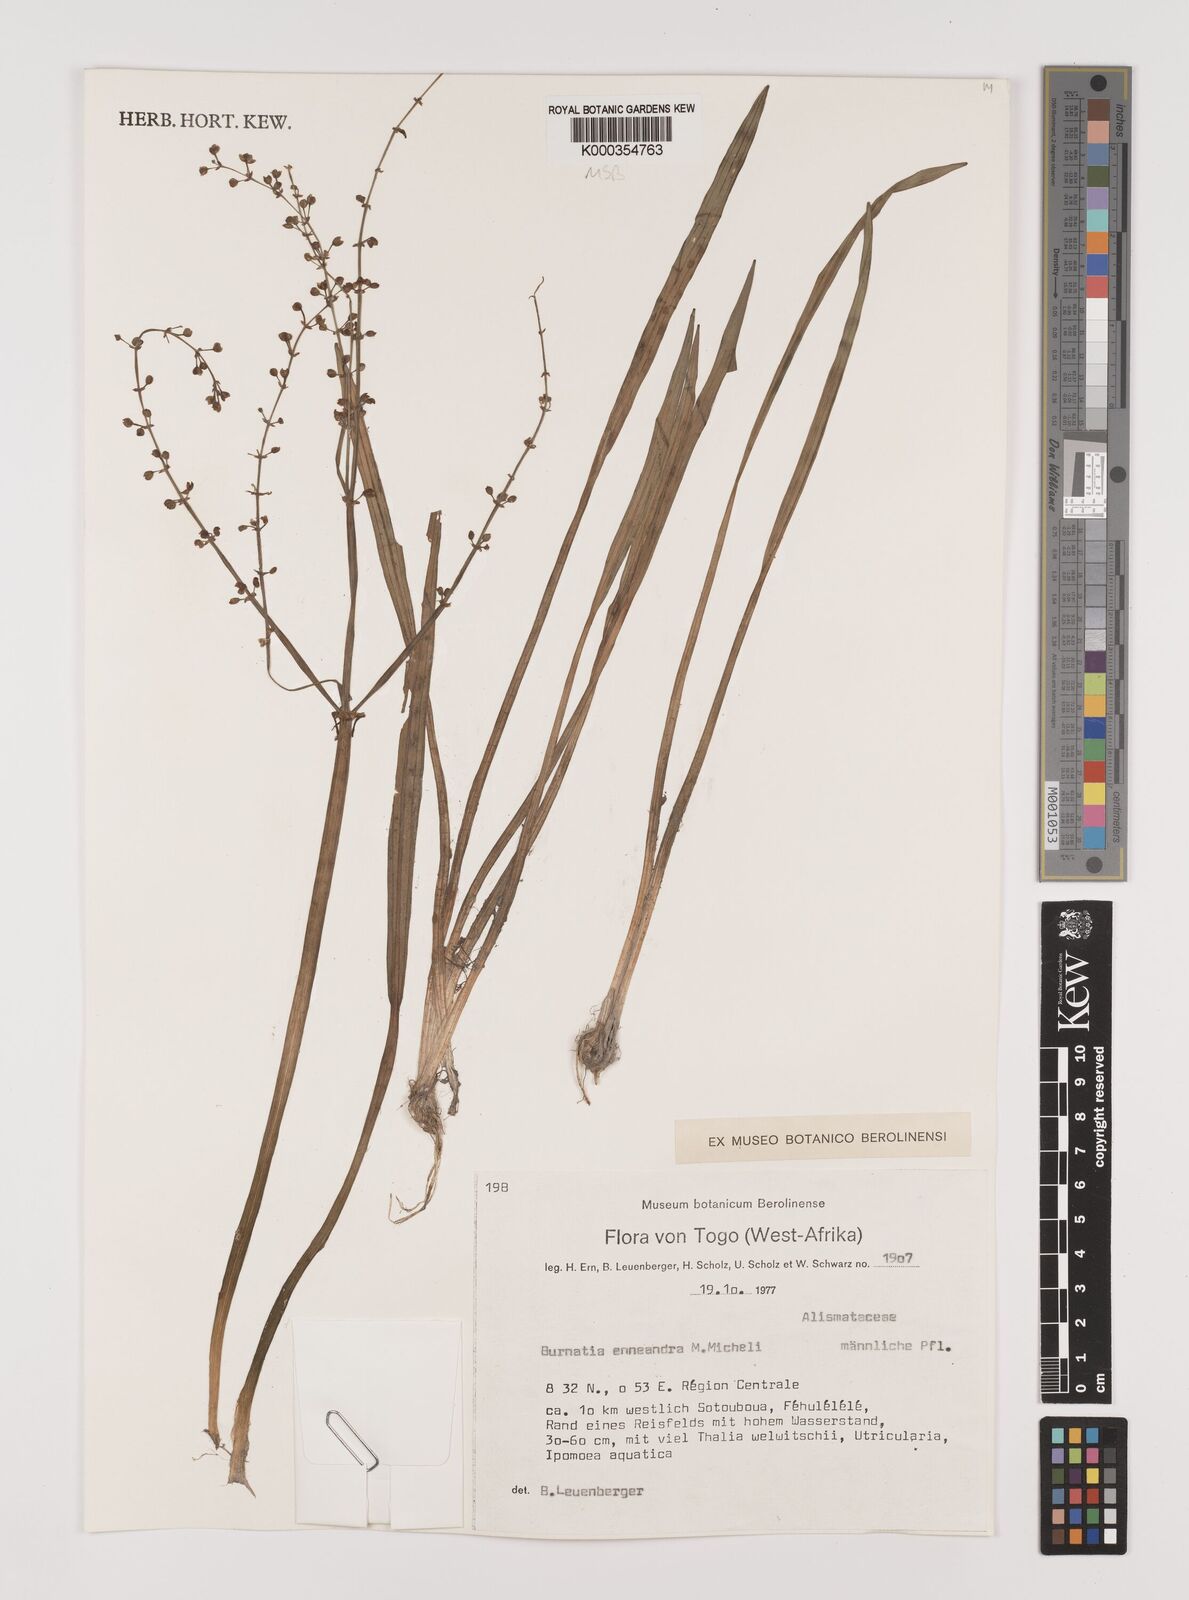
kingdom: Plantae
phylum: Tracheophyta
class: Liliopsida
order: Alismatales
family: Alismataceae
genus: Burnatia
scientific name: Burnatia enneandra
